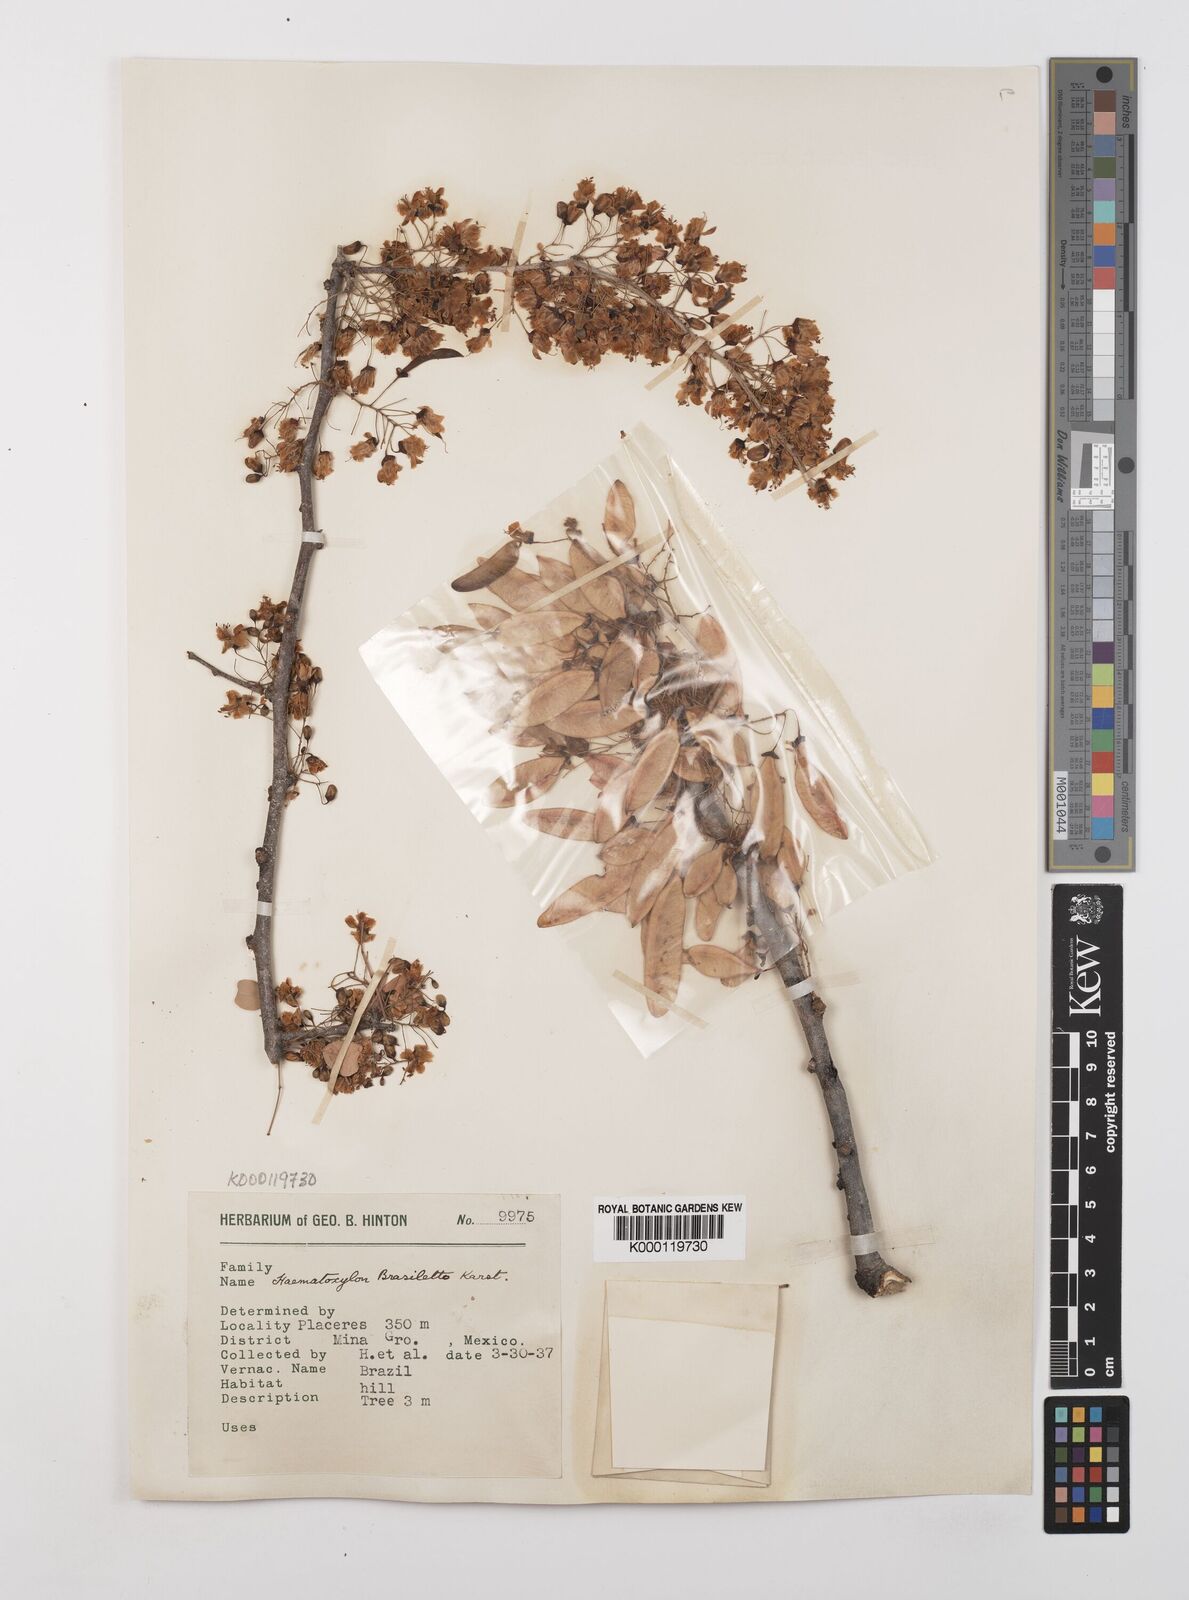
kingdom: Plantae
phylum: Tracheophyta
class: Magnoliopsida
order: Fabales
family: Fabaceae
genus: Haematoxylum
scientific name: Haematoxylum brasiletto
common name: Peachwood
